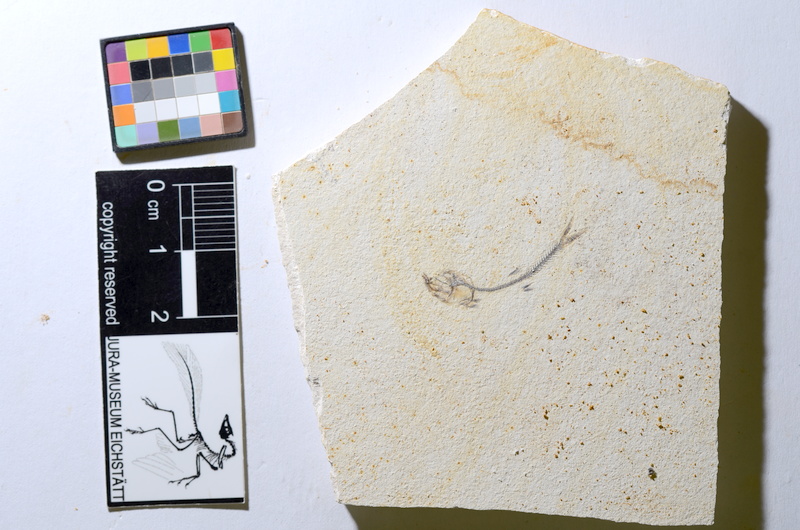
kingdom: Animalia
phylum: Chordata
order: Salmoniformes
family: Orthogonikleithridae
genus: Orthogonikleithrus
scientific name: Orthogonikleithrus hoelli
